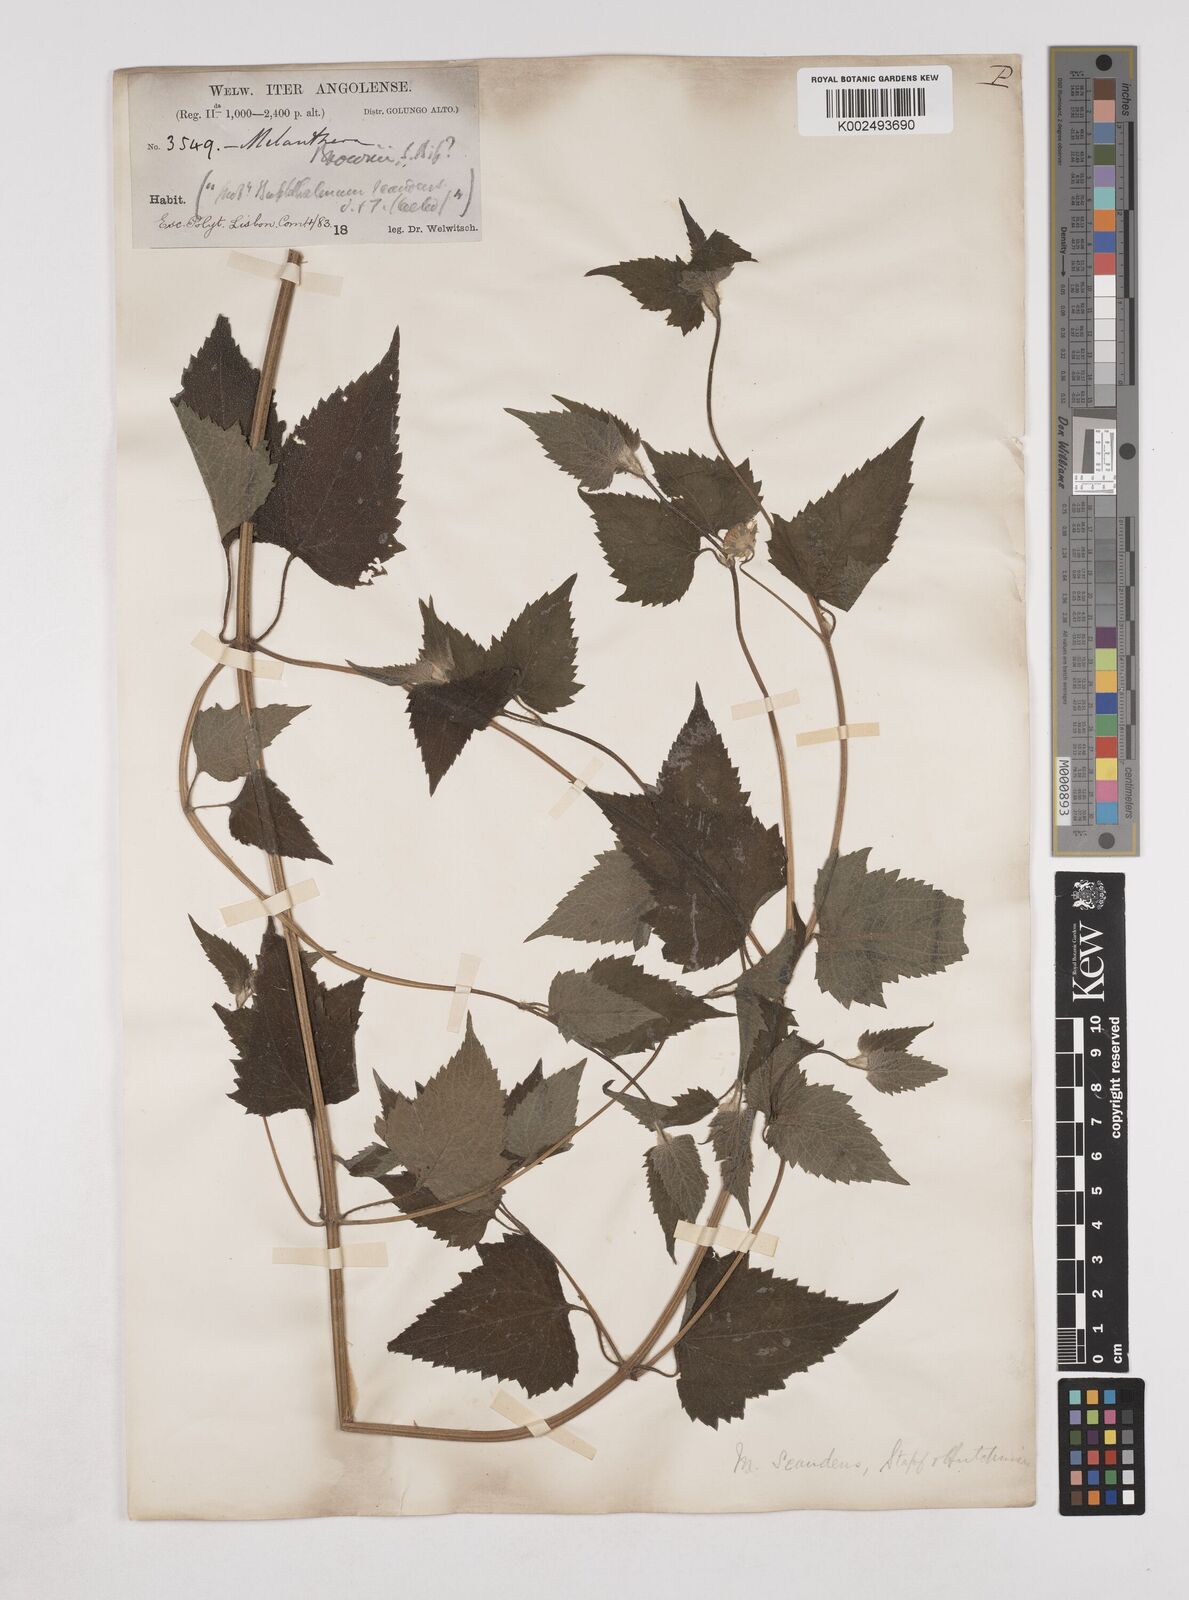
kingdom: Plantae
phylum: Tracheophyta
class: Magnoliopsida
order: Asterales
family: Asteraceae
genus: Lipotriche
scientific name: Lipotriche marlothiana
